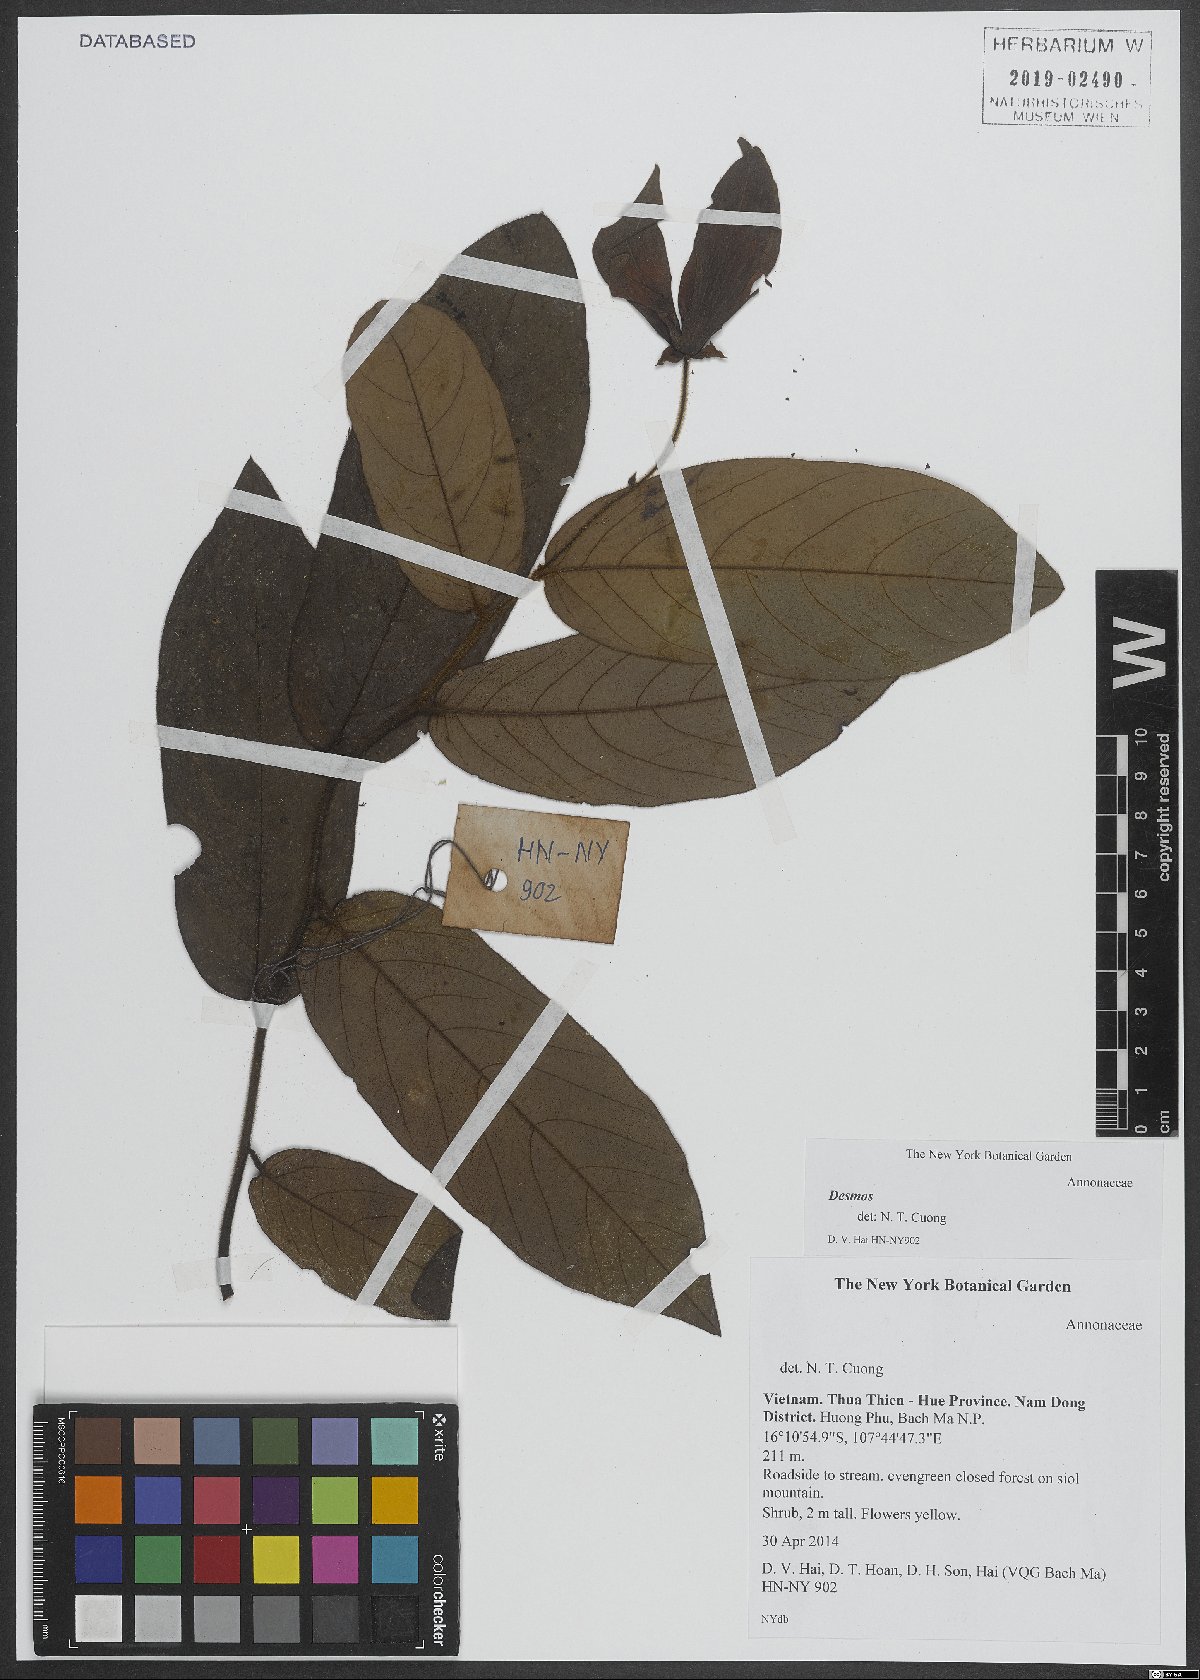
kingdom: Plantae
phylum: Tracheophyta
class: Magnoliopsida
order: Magnoliales
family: Annonaceae
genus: Desmos
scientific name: Desmos
